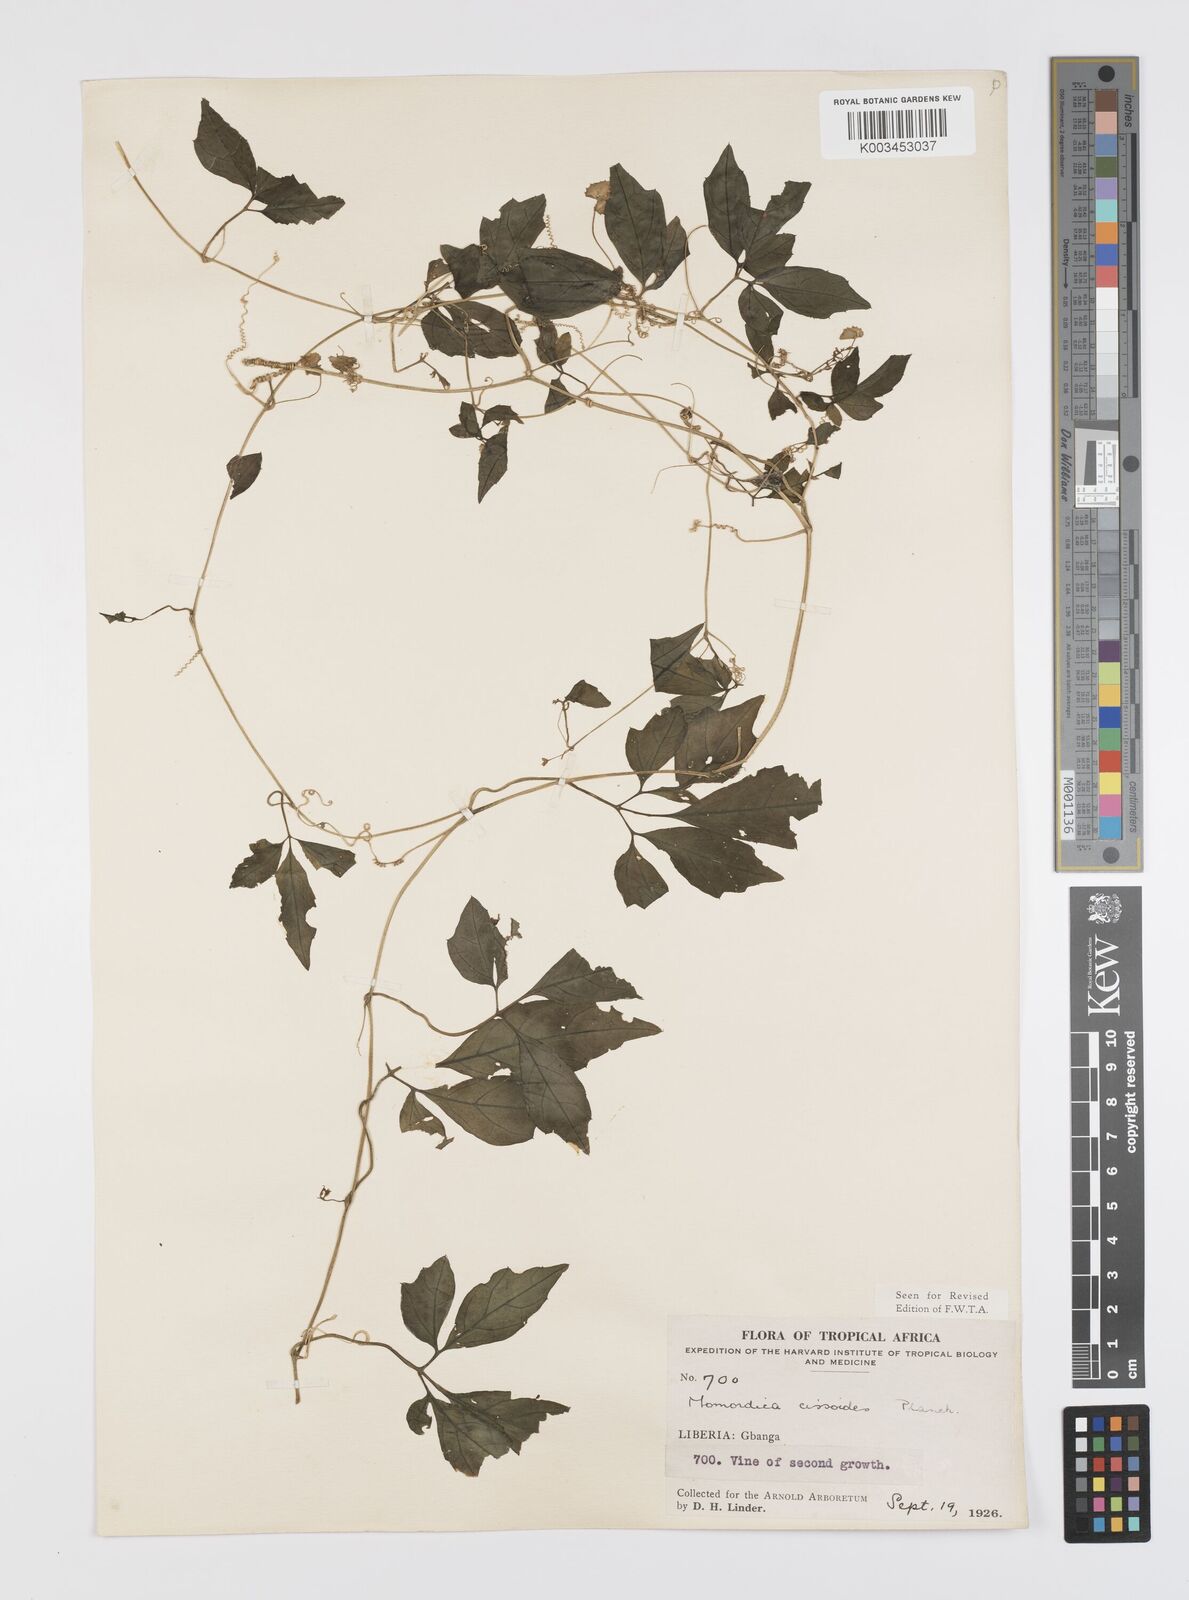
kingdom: Plantae
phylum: Tracheophyta
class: Magnoliopsida
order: Cucurbitales
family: Cucurbitaceae
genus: Momordica
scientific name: Momordica cissoides
